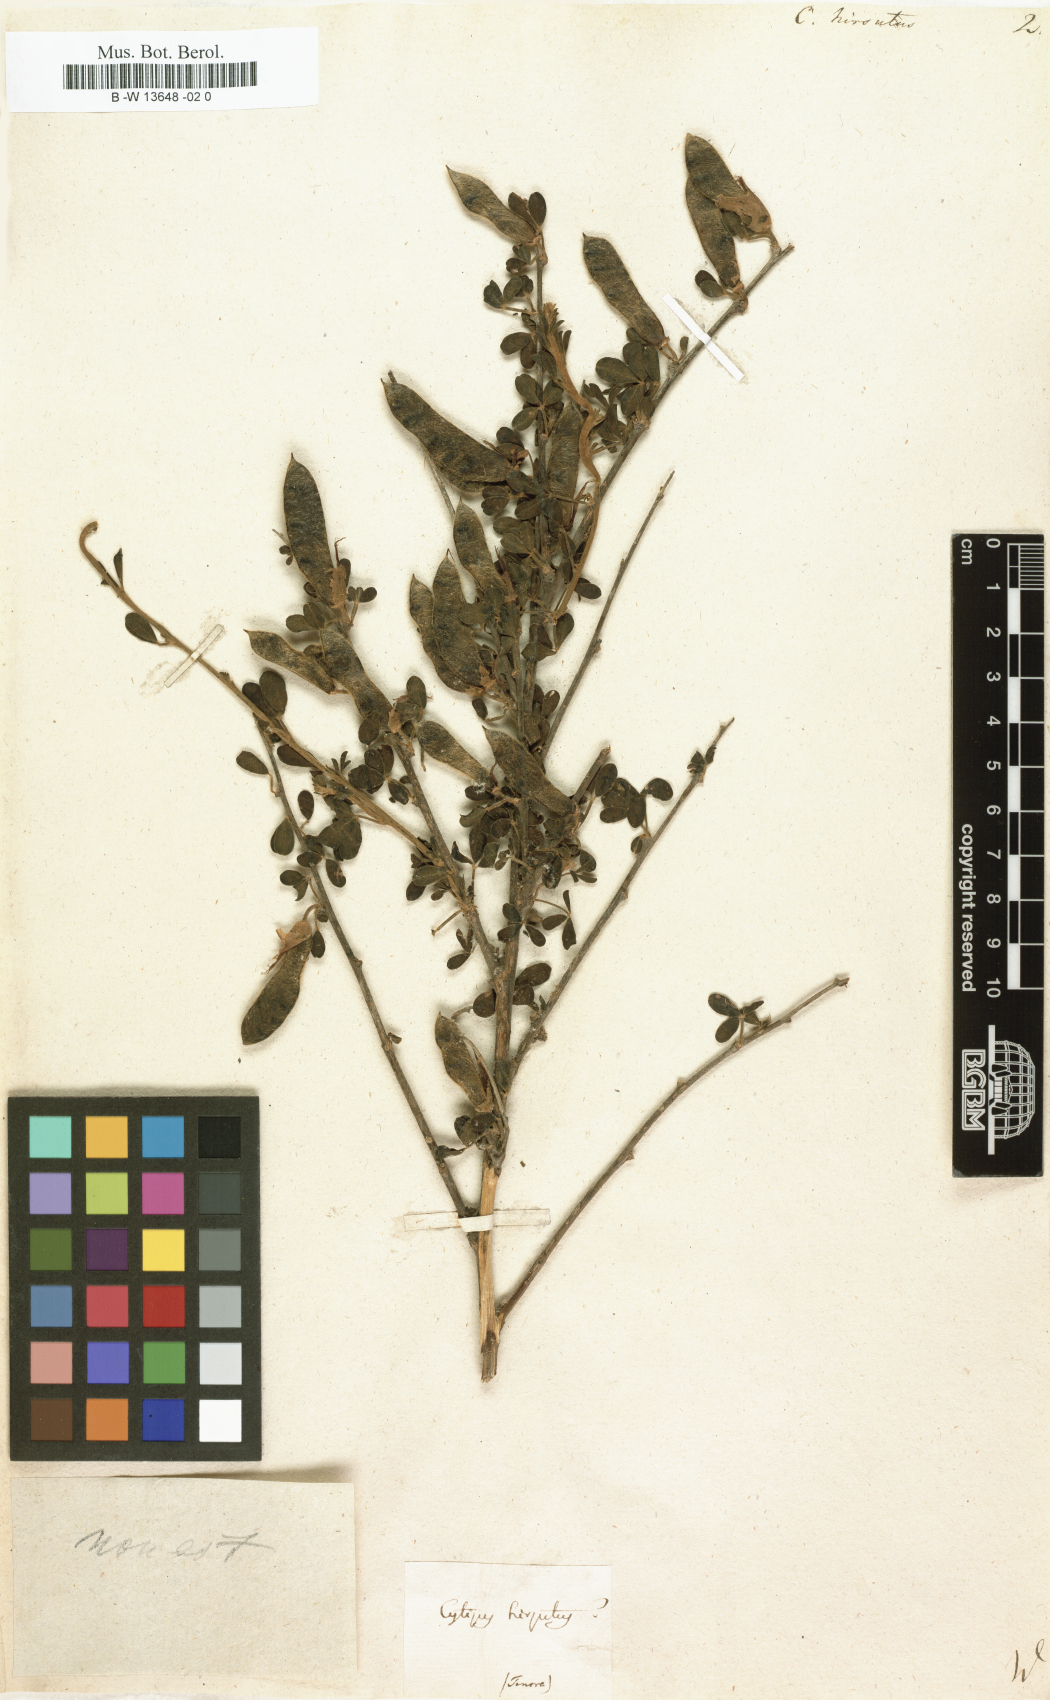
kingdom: Plantae
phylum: Tracheophyta
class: Magnoliopsida
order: Fabales
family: Fabaceae
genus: Chamaecytisus
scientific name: Chamaecytisus hirsutus
